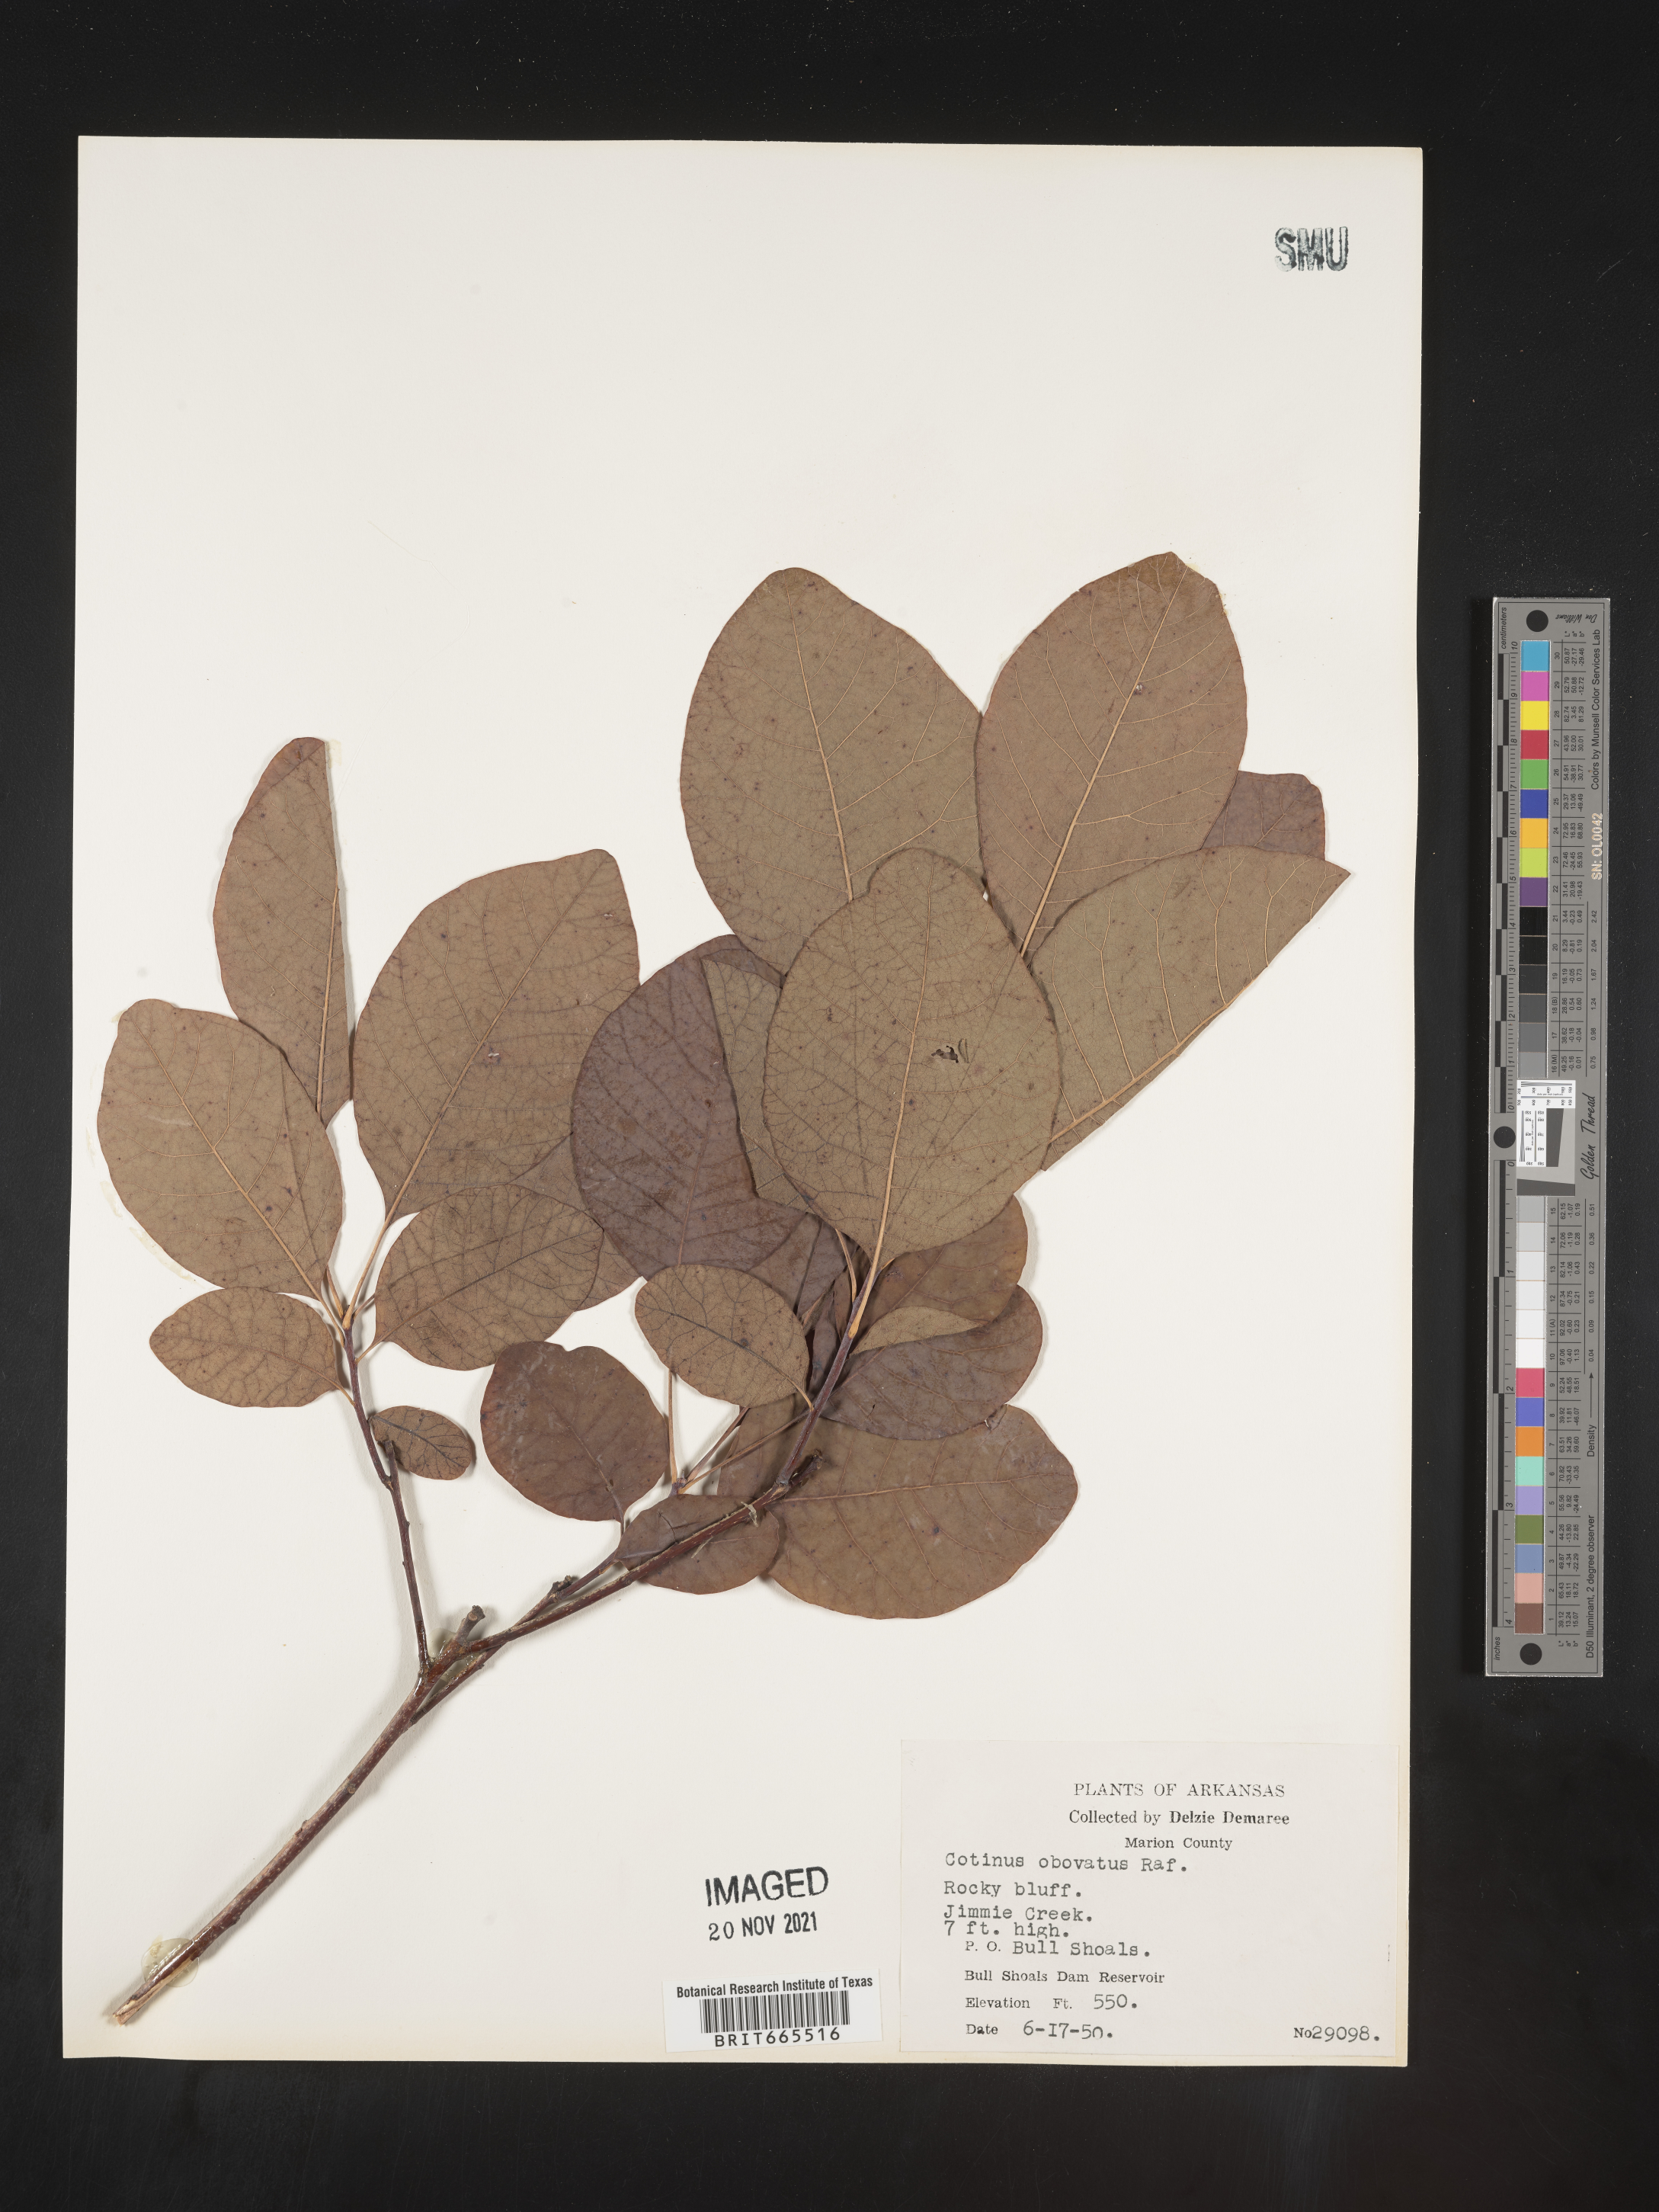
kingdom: Plantae
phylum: Tracheophyta
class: Magnoliopsida
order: Sapindales
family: Anacardiaceae
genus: Cotinus
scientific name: Cotinus obovatus
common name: Chittamwood
